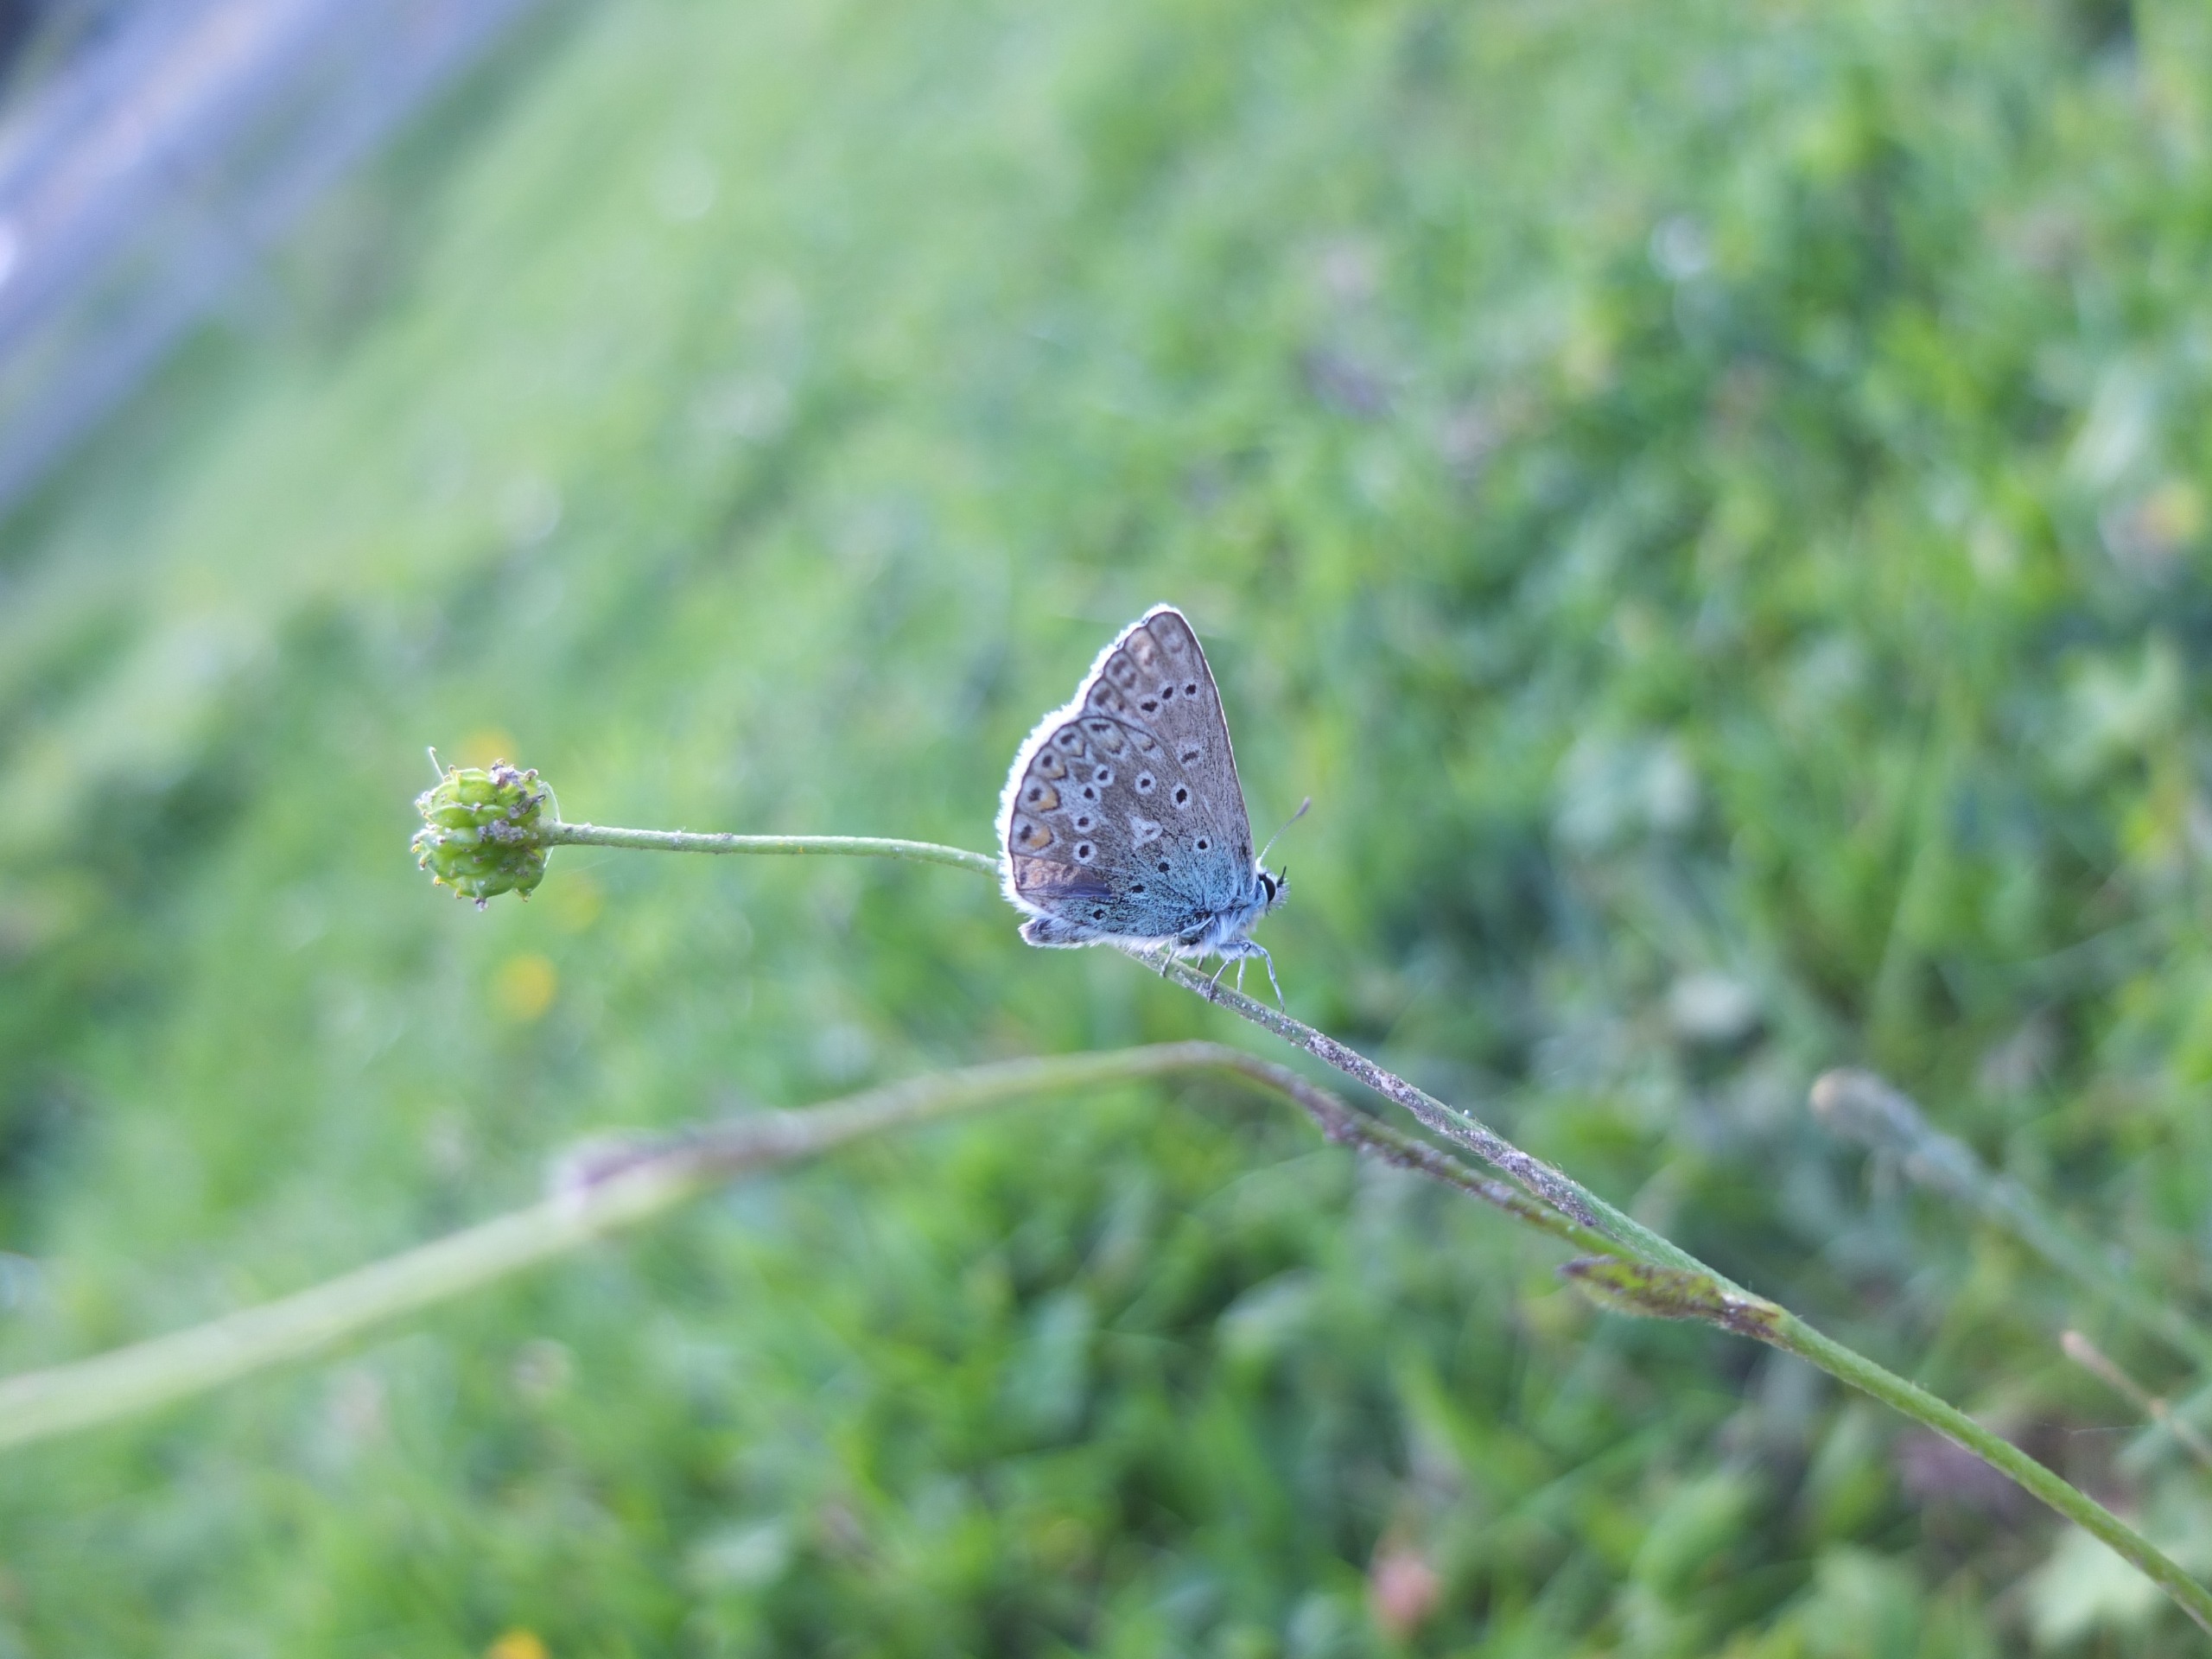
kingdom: Animalia
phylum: Arthropoda
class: Insecta
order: Lepidoptera
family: Lycaenidae
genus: Polyommatus
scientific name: Polyommatus icarus
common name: Almindelig blåfugl
